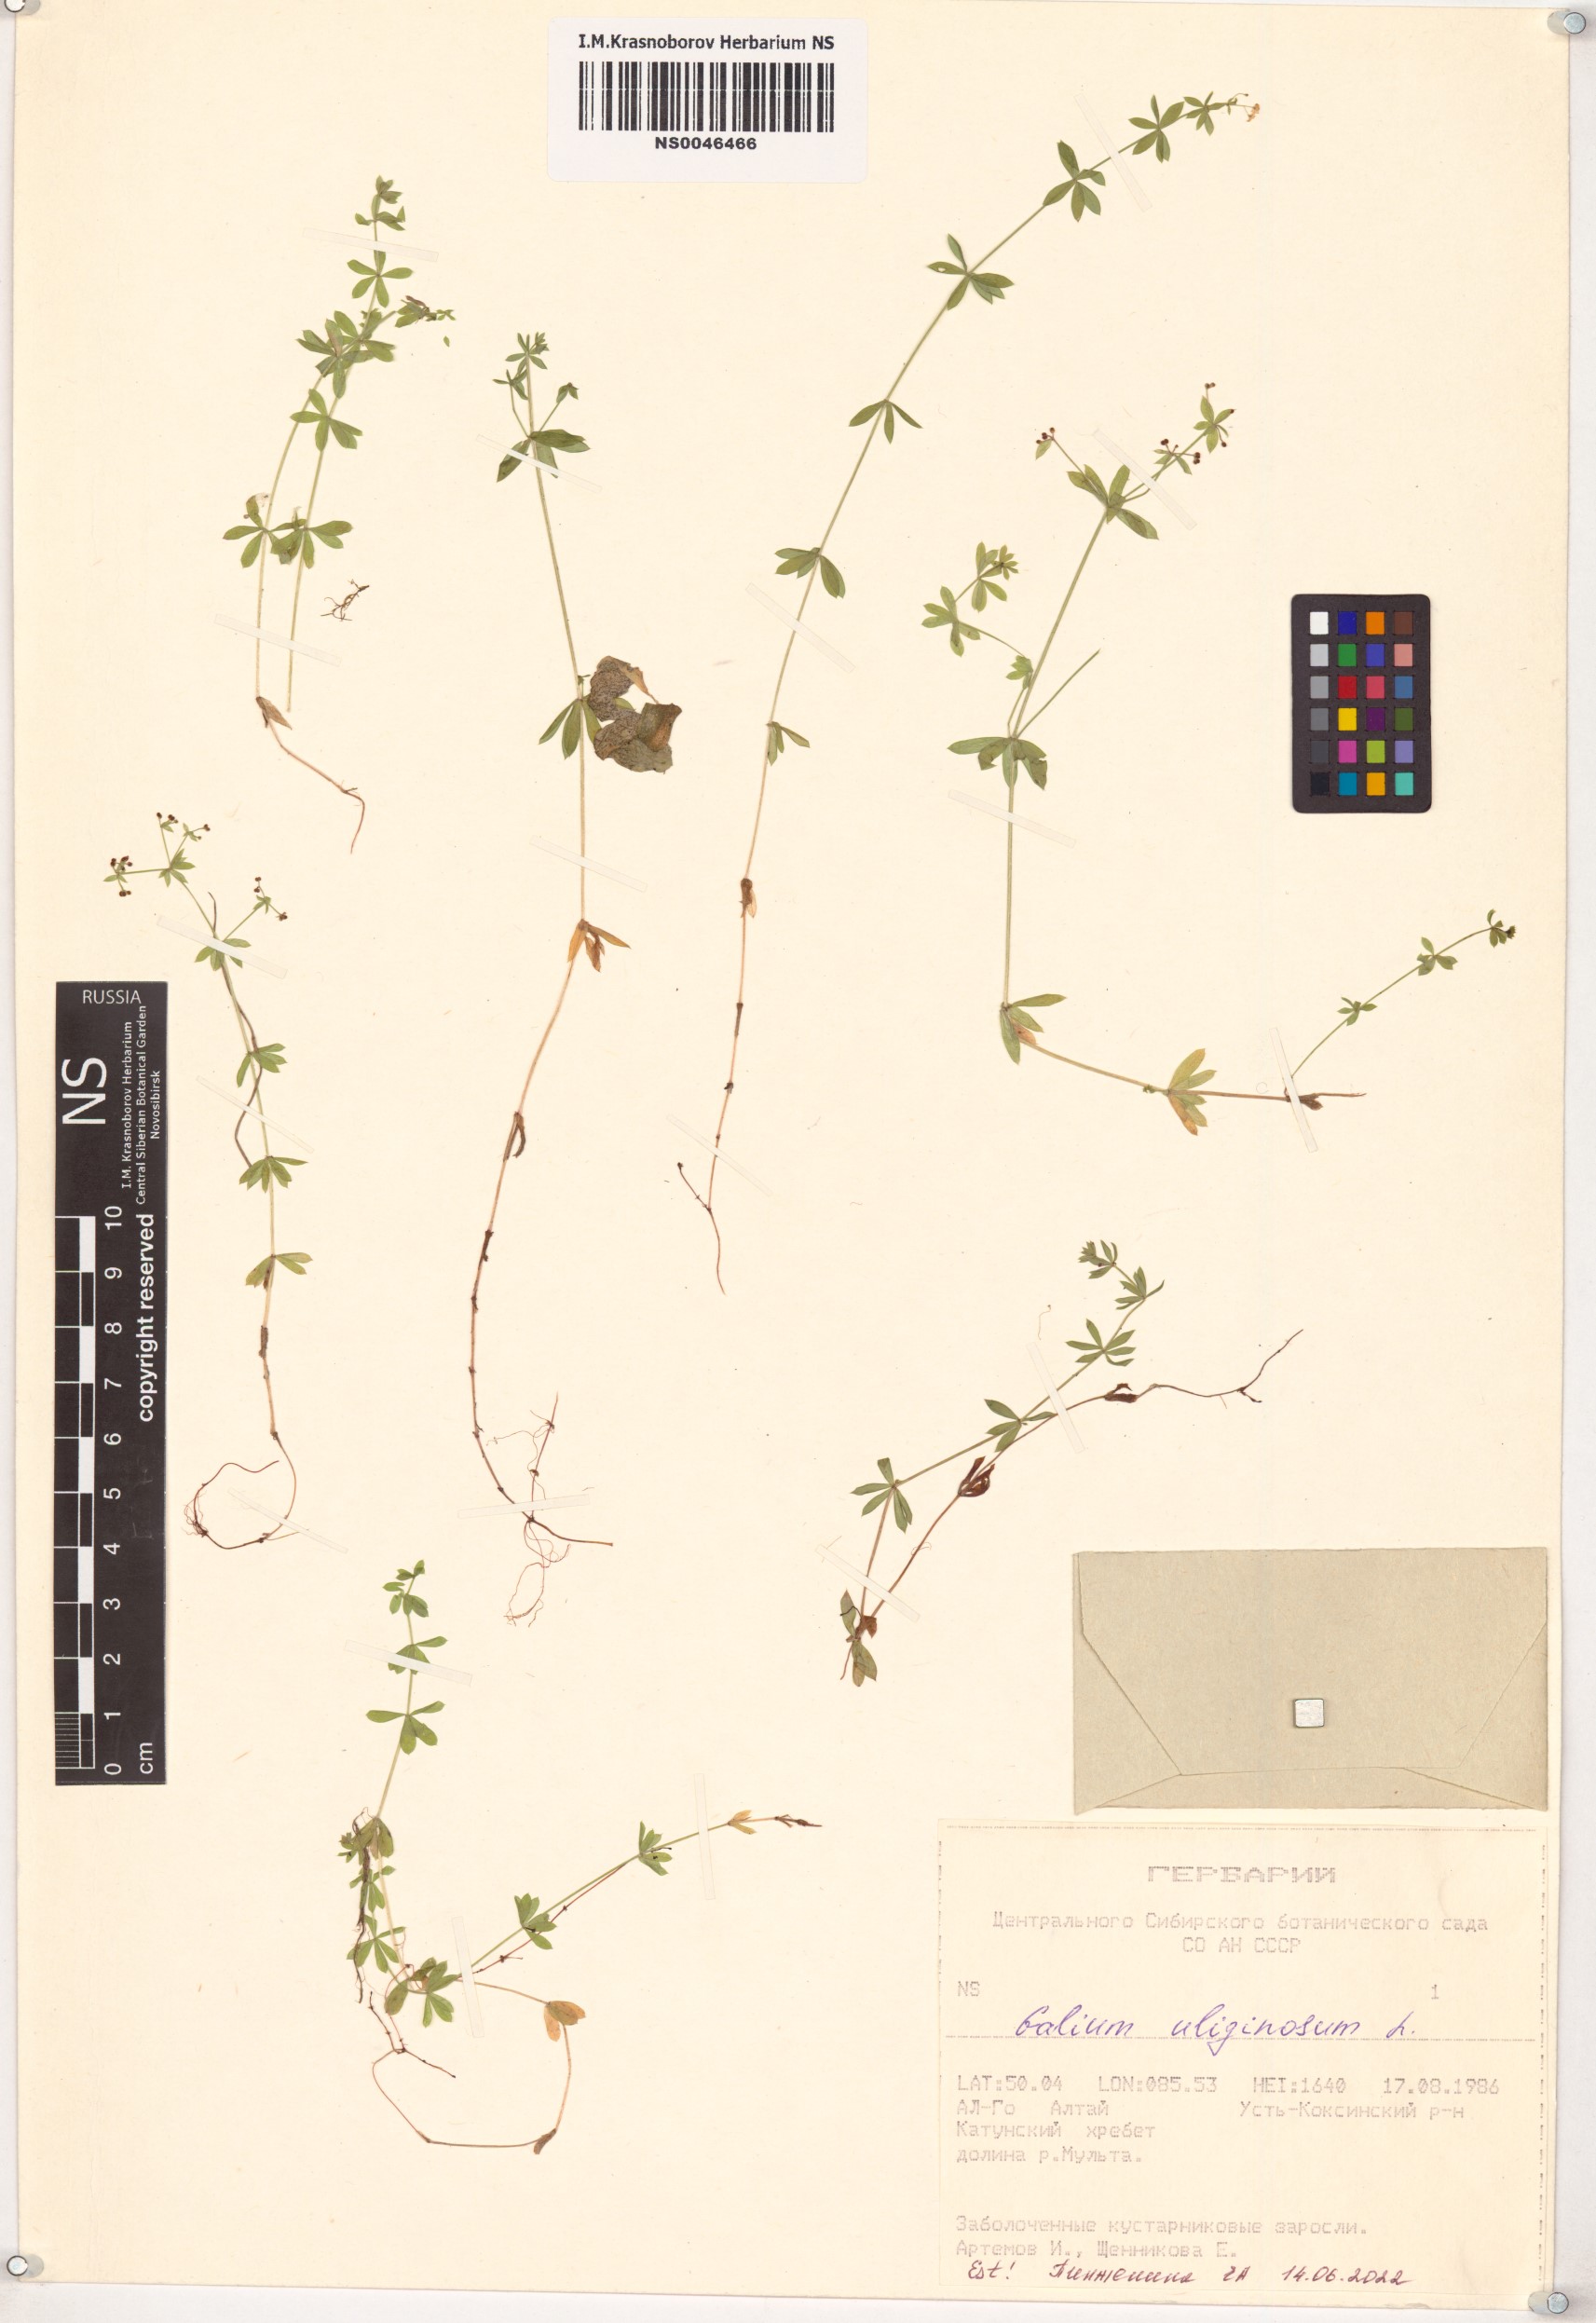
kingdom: Plantae
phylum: Tracheophyta
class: Magnoliopsida
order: Gentianales
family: Rubiaceae
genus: Galium
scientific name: Galium uliginosum
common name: Fen bedstraw
